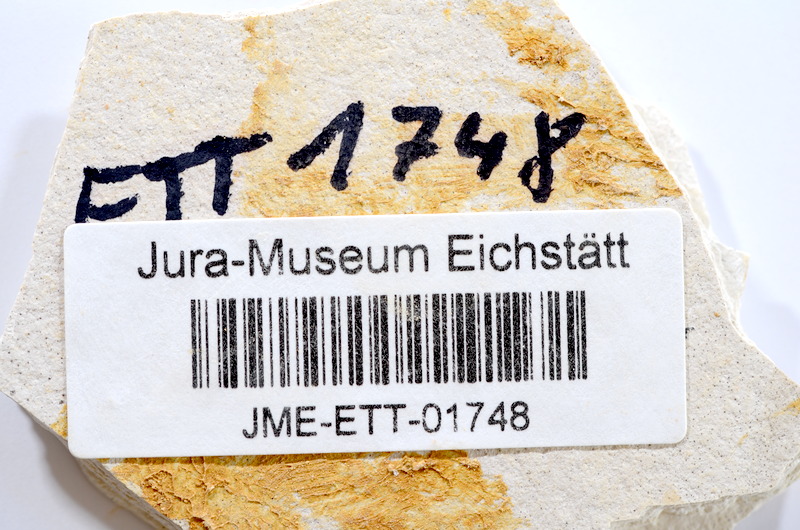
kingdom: Animalia
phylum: Chordata
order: Salmoniformes
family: Orthogonikleithridae
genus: Orthogonikleithrus
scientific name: Orthogonikleithrus hoelli
